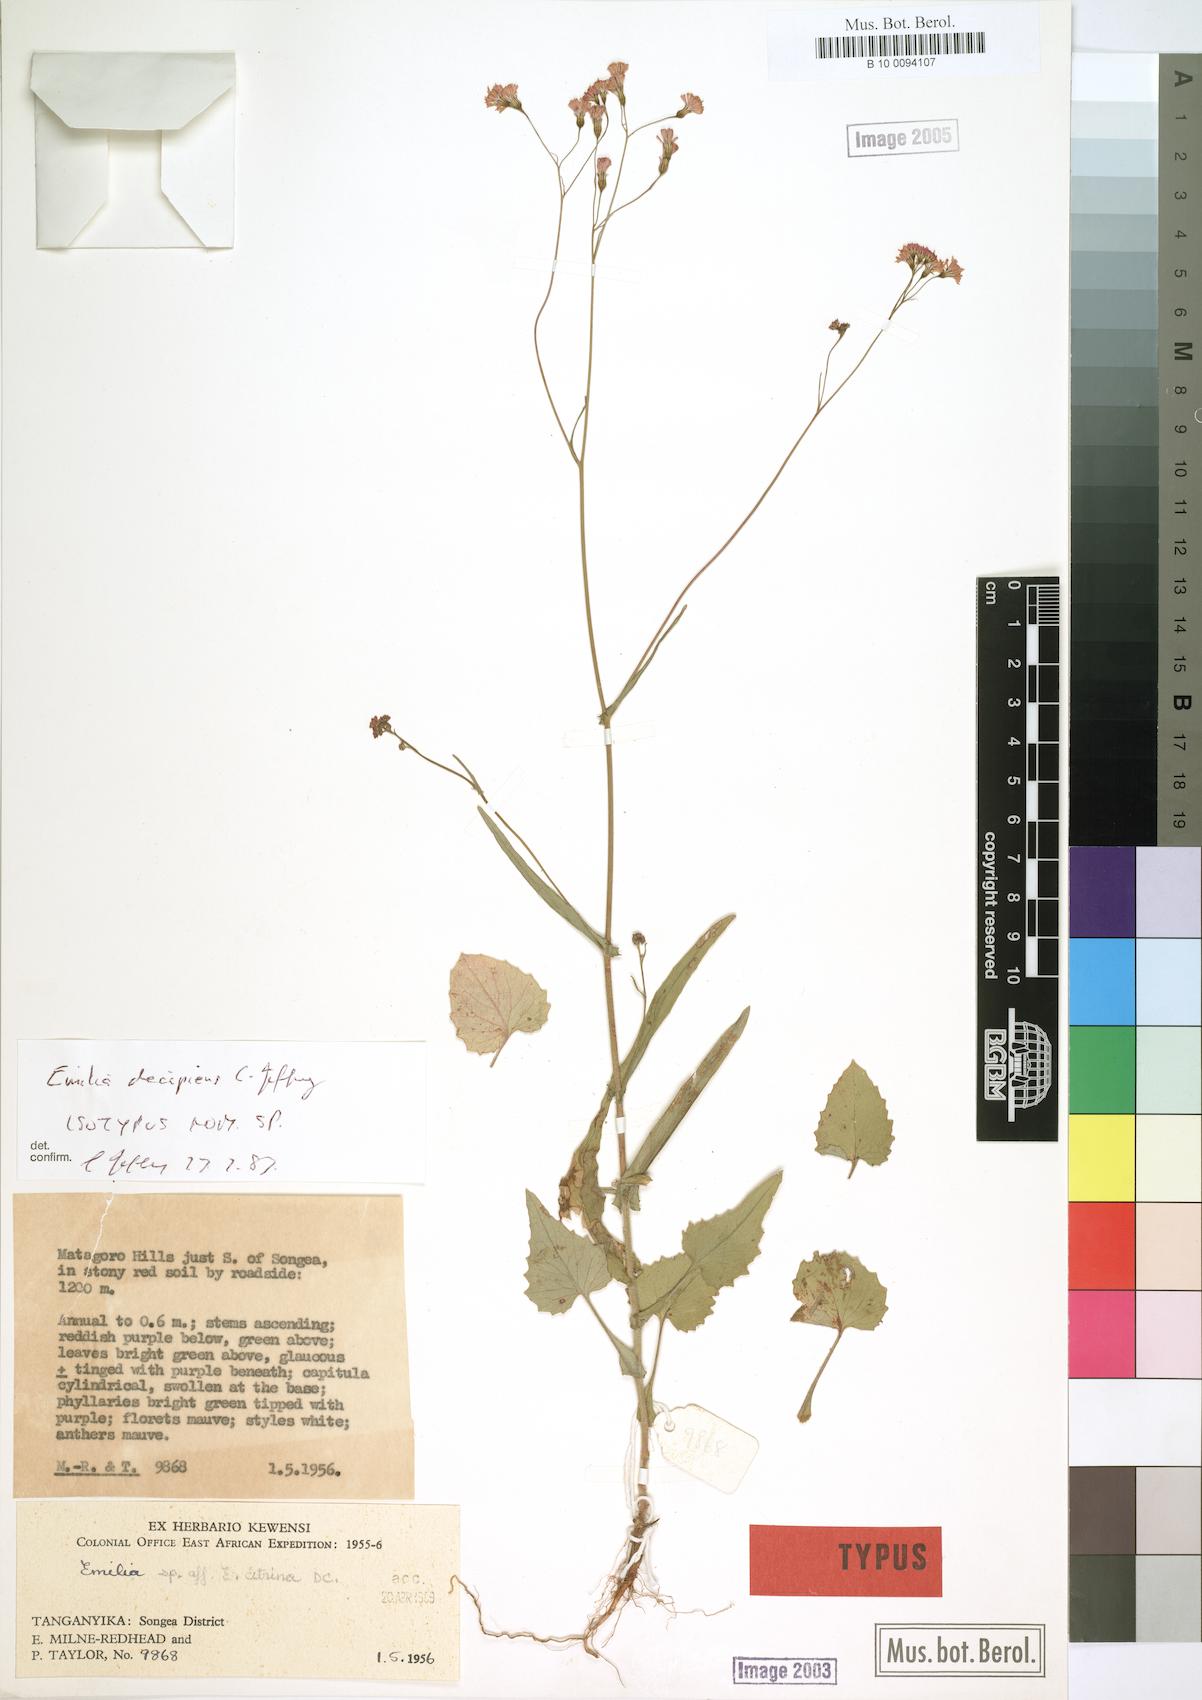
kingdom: Plantae
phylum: Tracheophyta
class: Magnoliopsida
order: Asterales
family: Asteraceae
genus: Emilia
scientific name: Emilia decipiens
